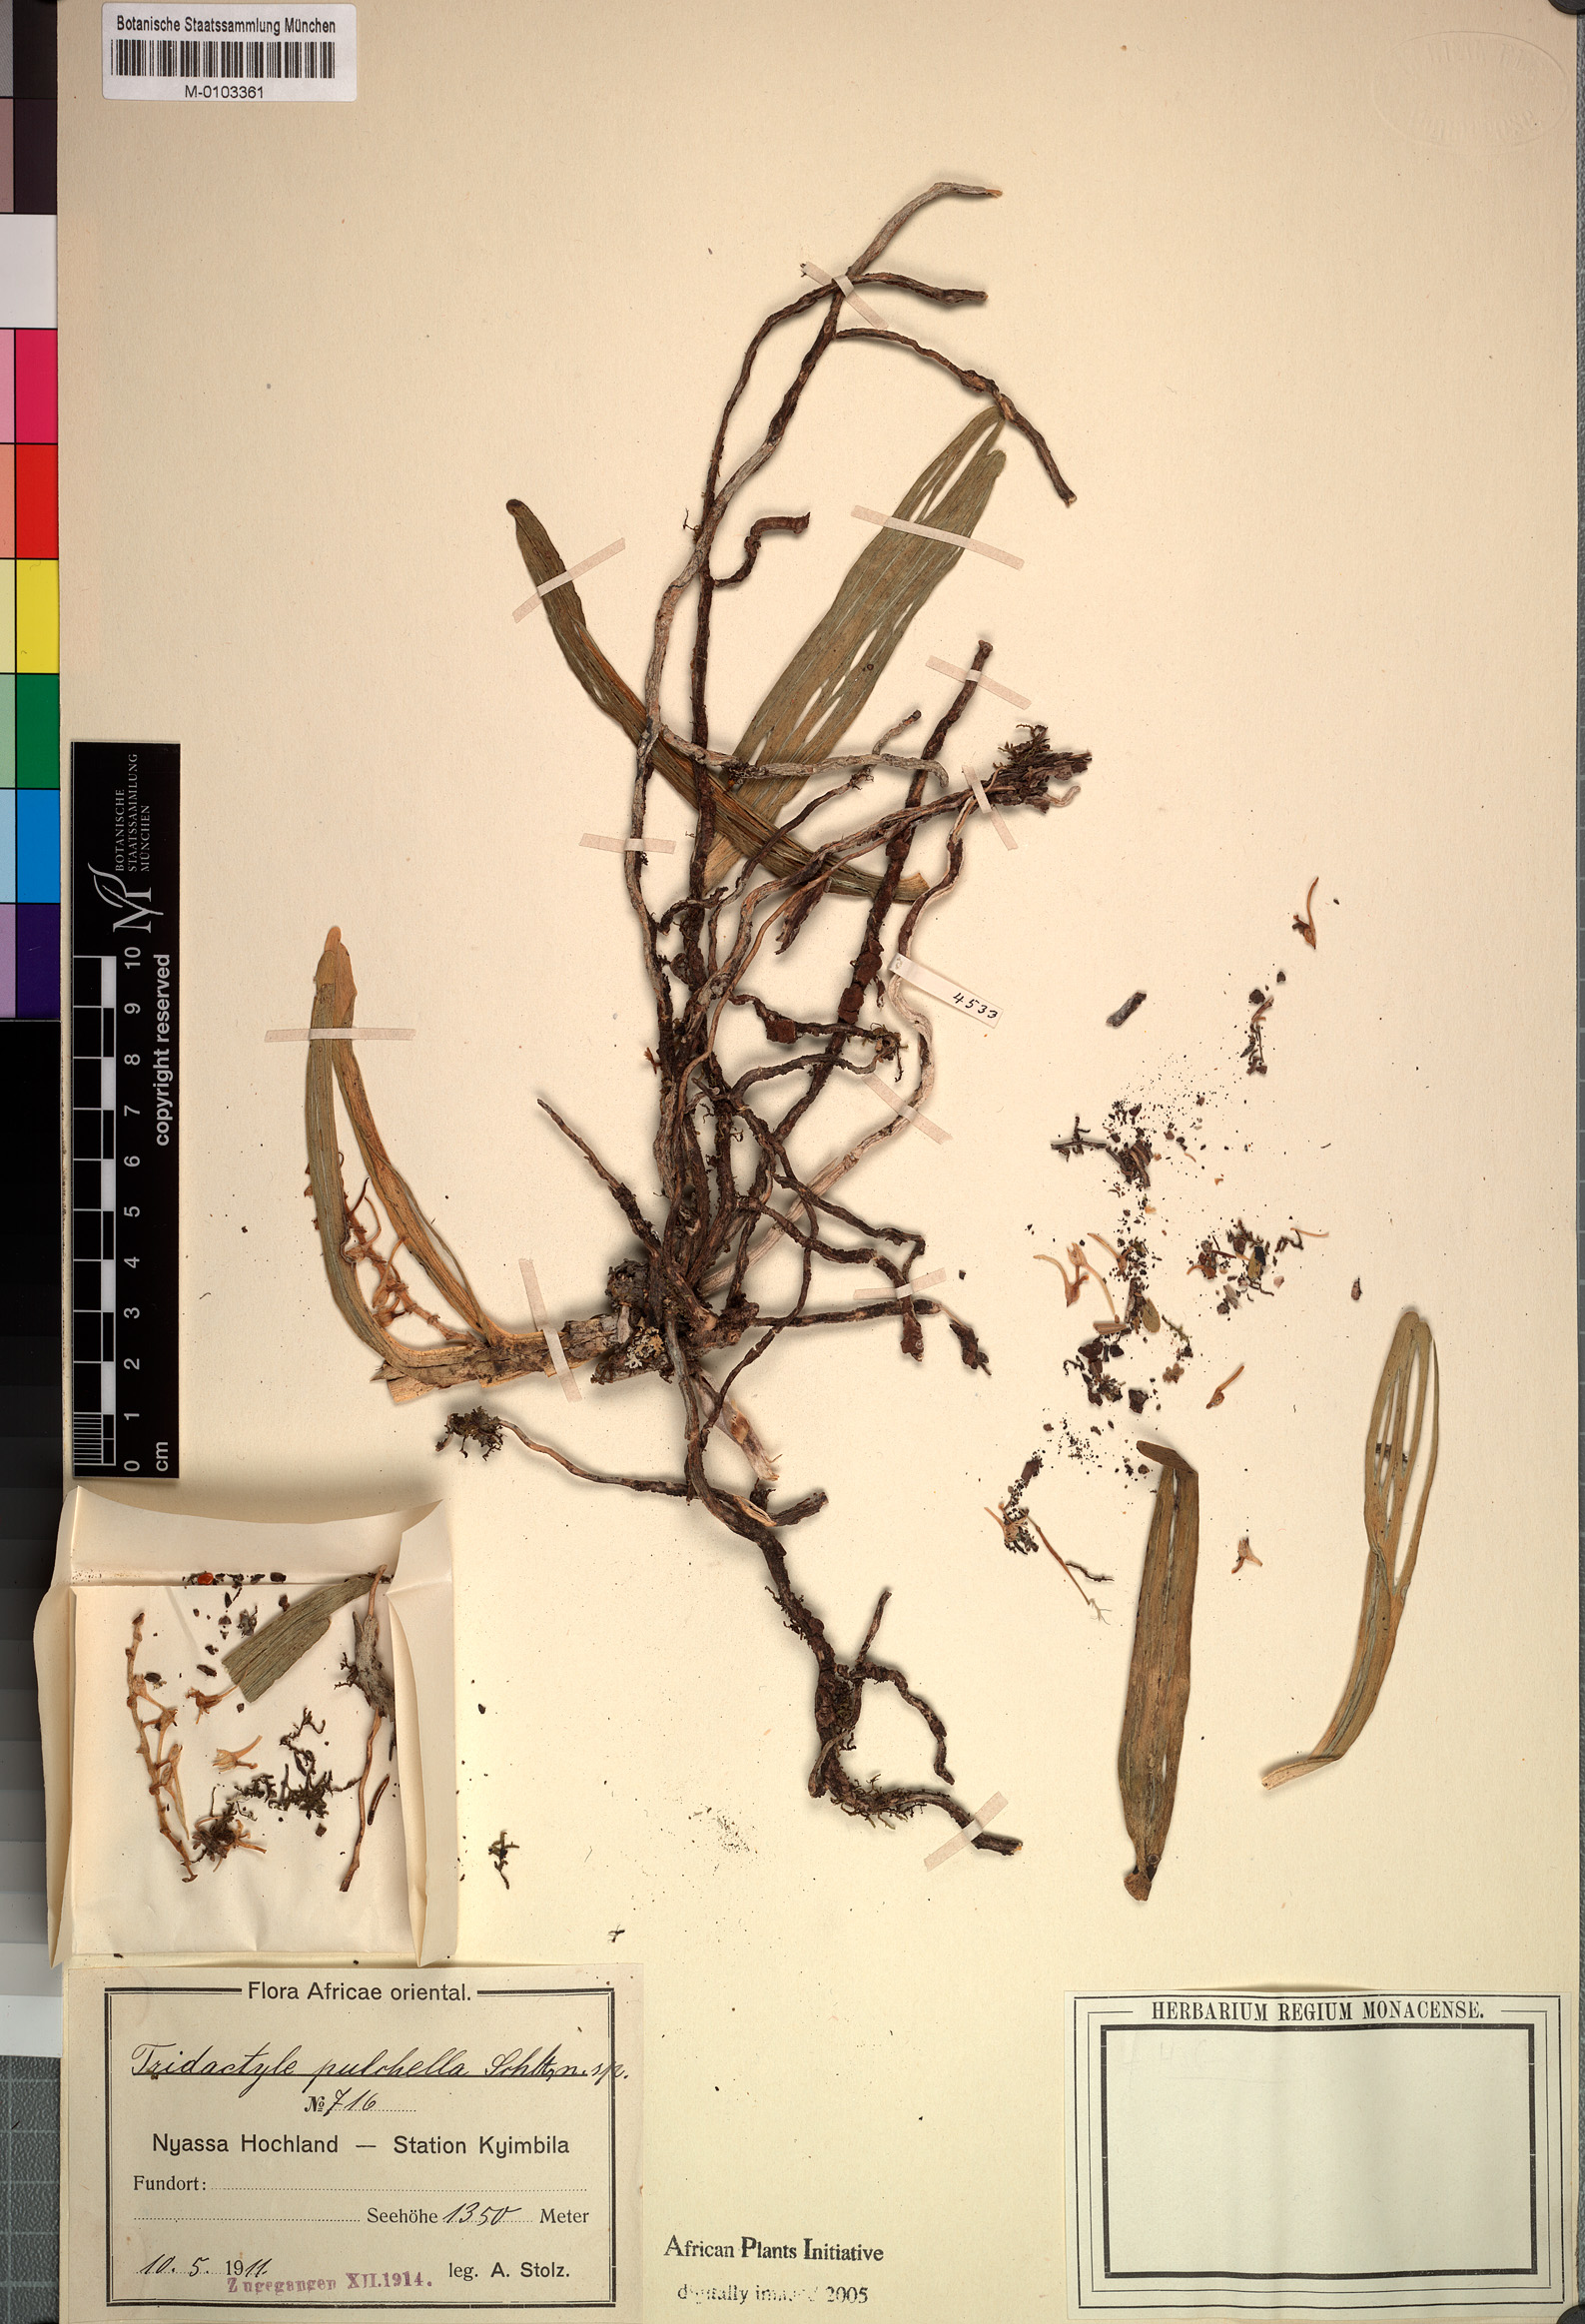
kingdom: Plantae
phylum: Tracheophyta
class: Liliopsida
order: Asparagales
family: Orchidaceae
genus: Tridactyle
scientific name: Tridactyle bicaudata
